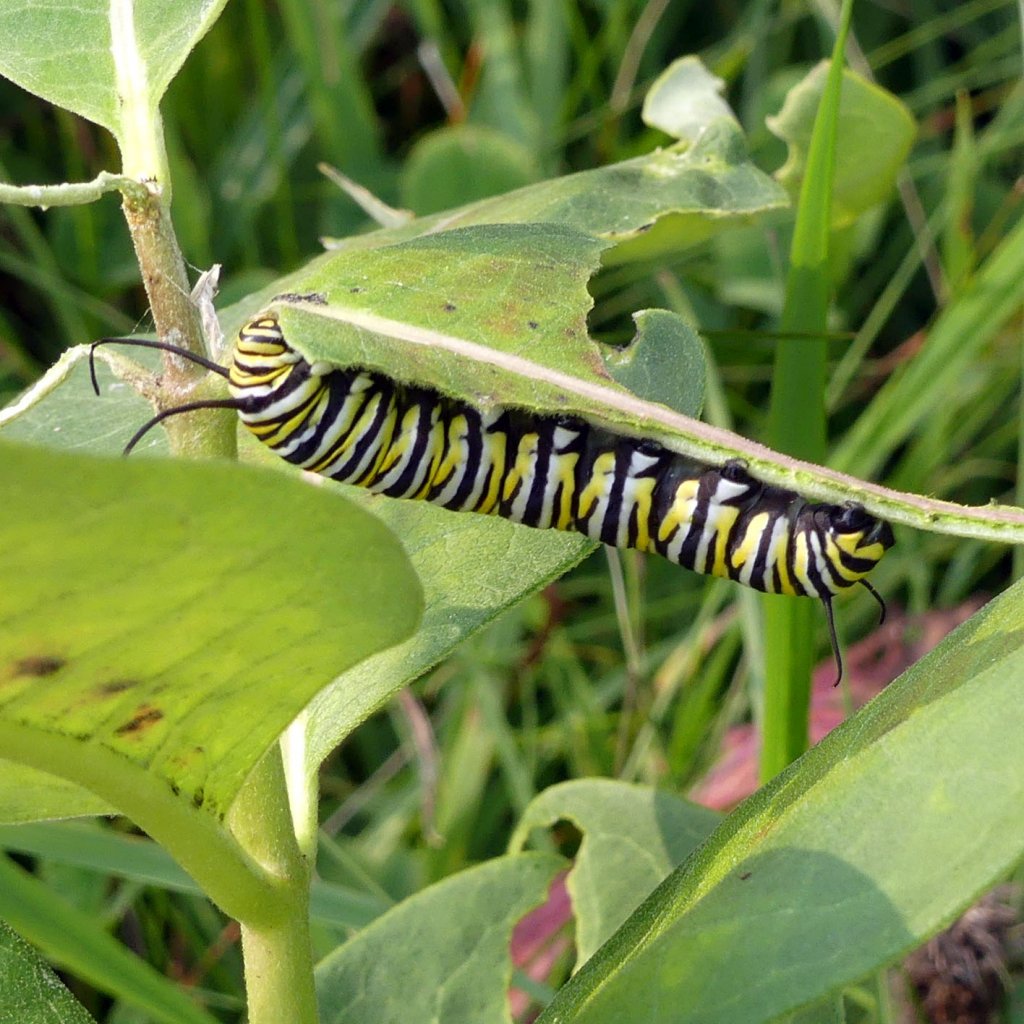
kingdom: Animalia
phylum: Arthropoda
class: Insecta
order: Lepidoptera
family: Nymphalidae
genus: Danaus
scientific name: Danaus plexippus
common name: Monarch
